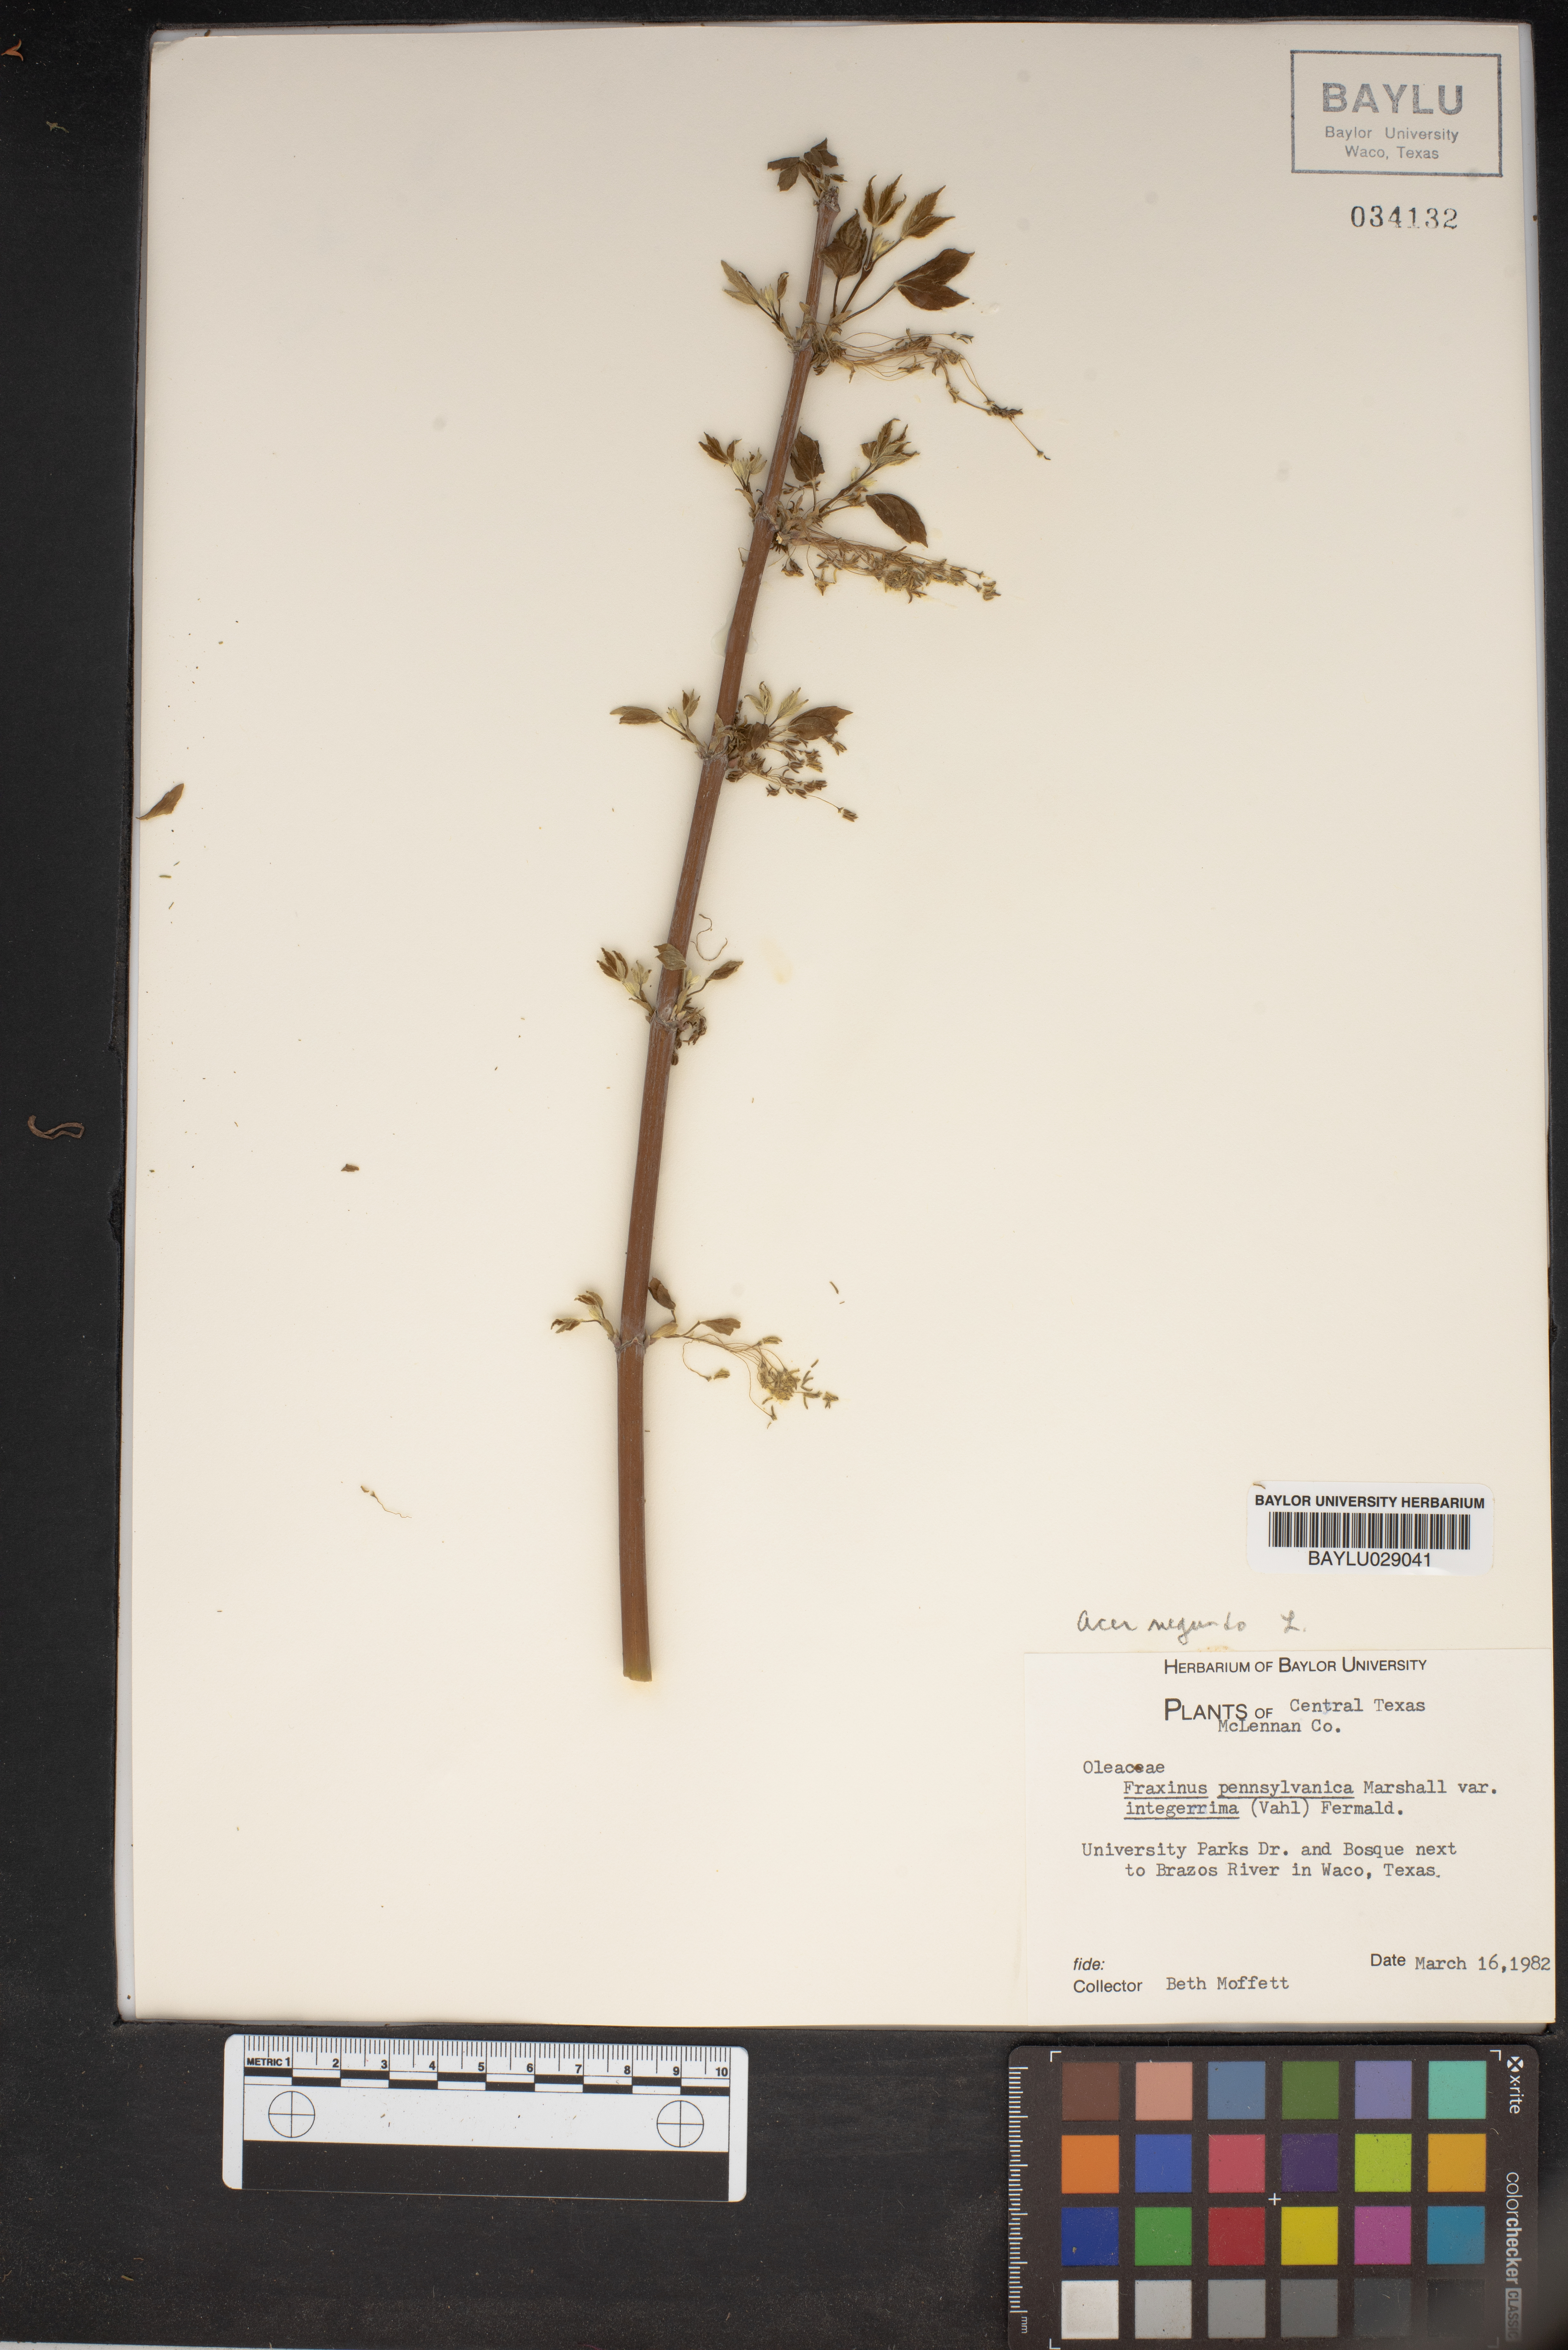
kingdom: Plantae
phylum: Tracheophyta
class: Magnoliopsida
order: Lamiales
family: Oleaceae
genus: Fraxinus
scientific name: Fraxinus pennsylvanica
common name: Green ash
